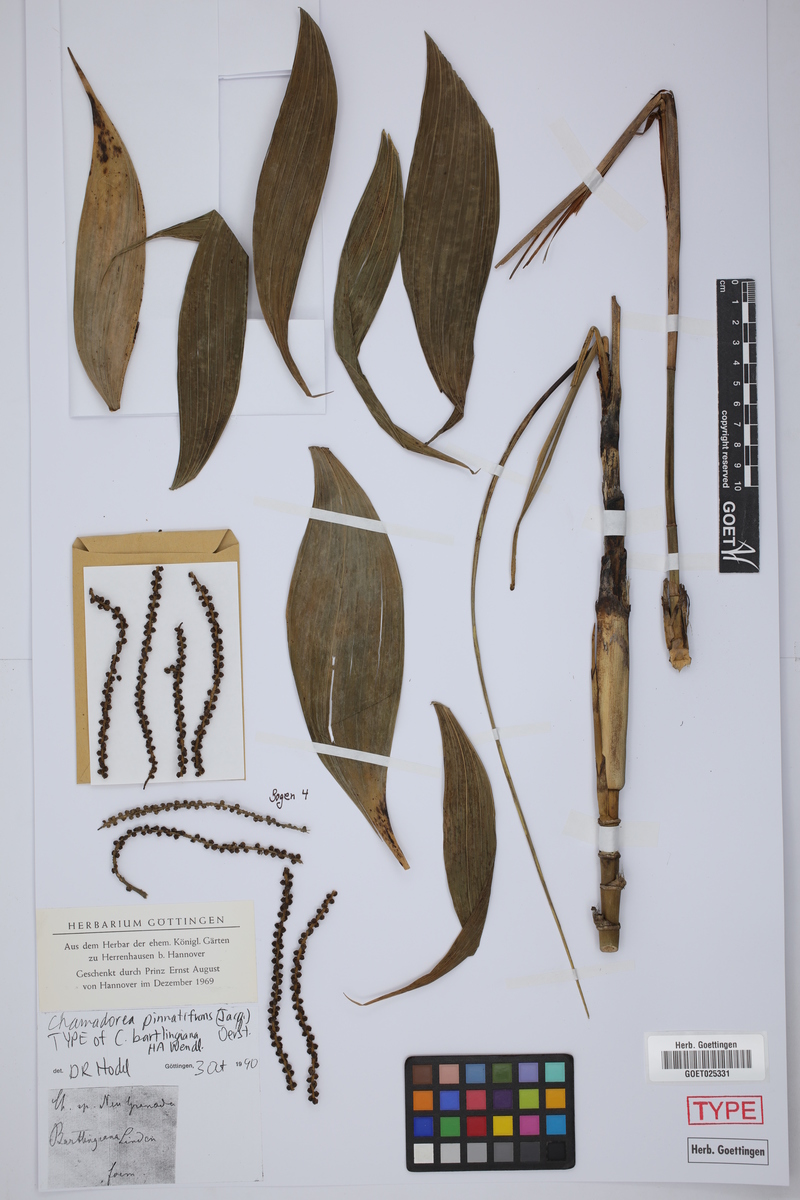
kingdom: Plantae
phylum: Tracheophyta
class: Liliopsida
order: Arecales
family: Arecaceae
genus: Chamaedorea
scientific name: Chamaedorea pinnatifrons
